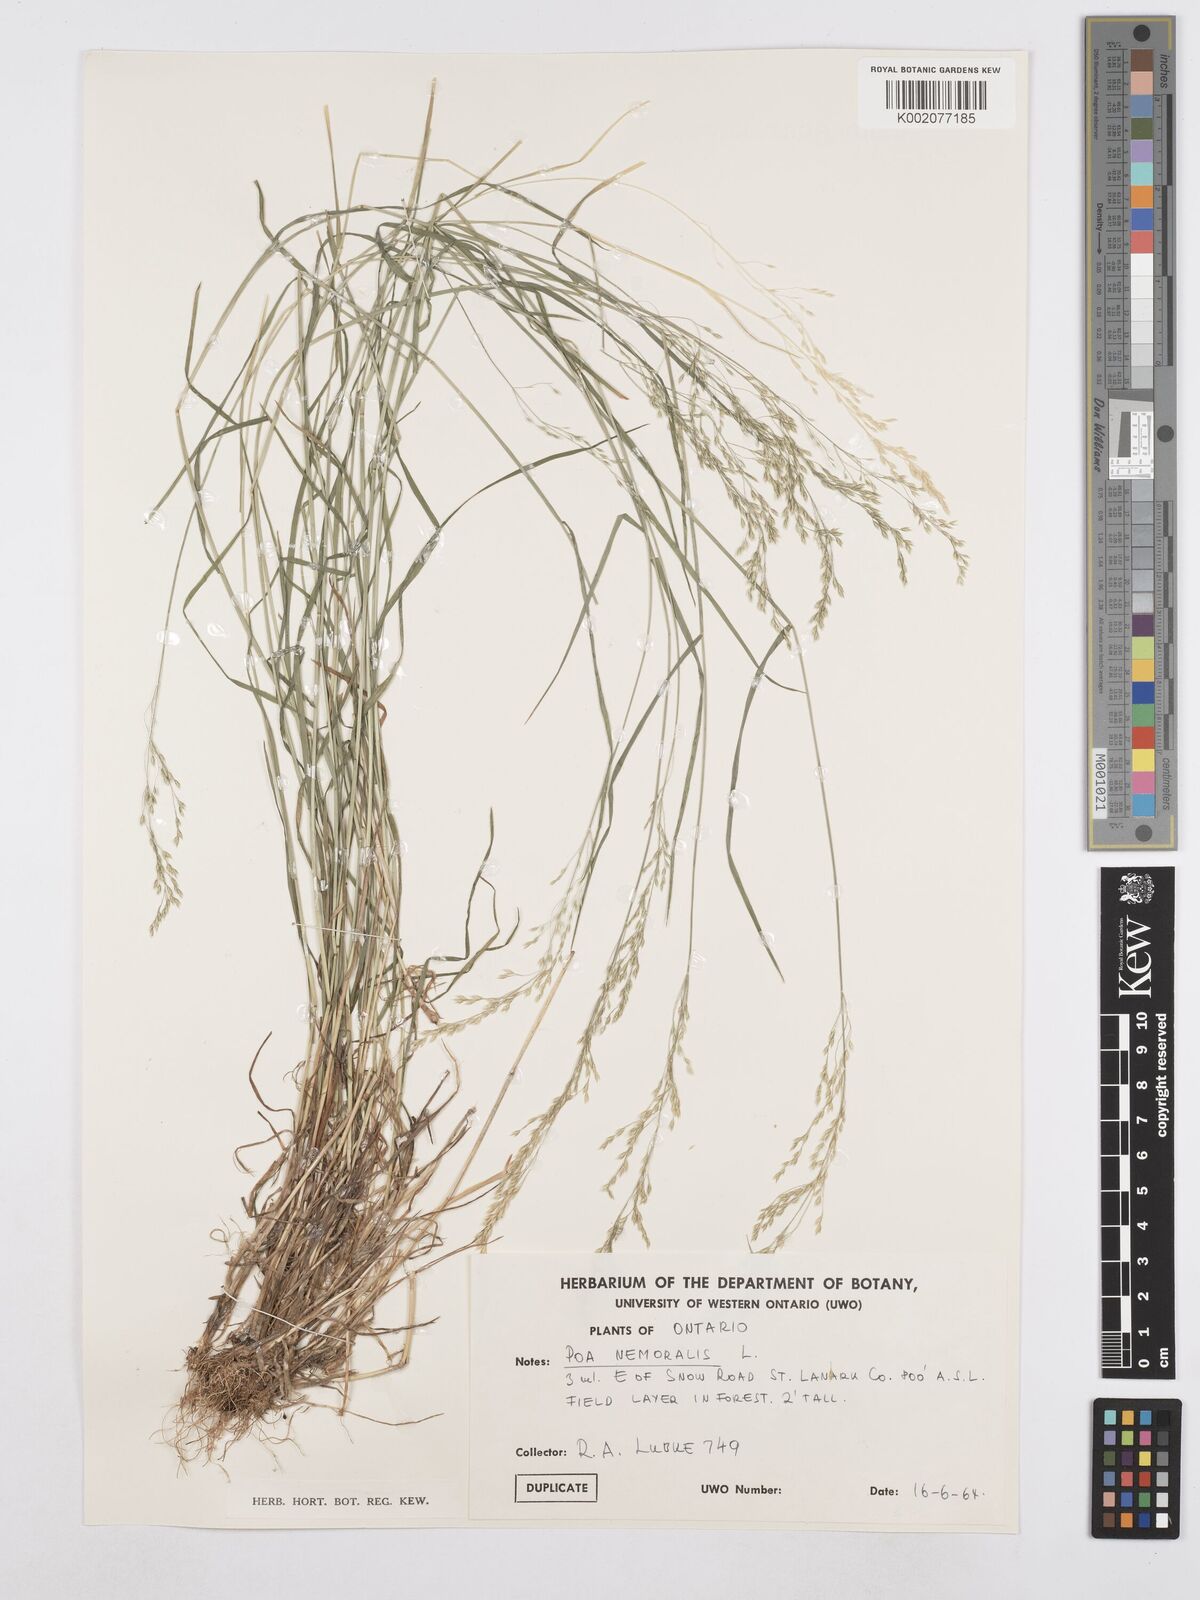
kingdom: Plantae
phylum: Tracheophyta
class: Liliopsida
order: Poales
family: Poaceae
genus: Poa
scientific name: Poa nemoralis
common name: Wood bluegrass
